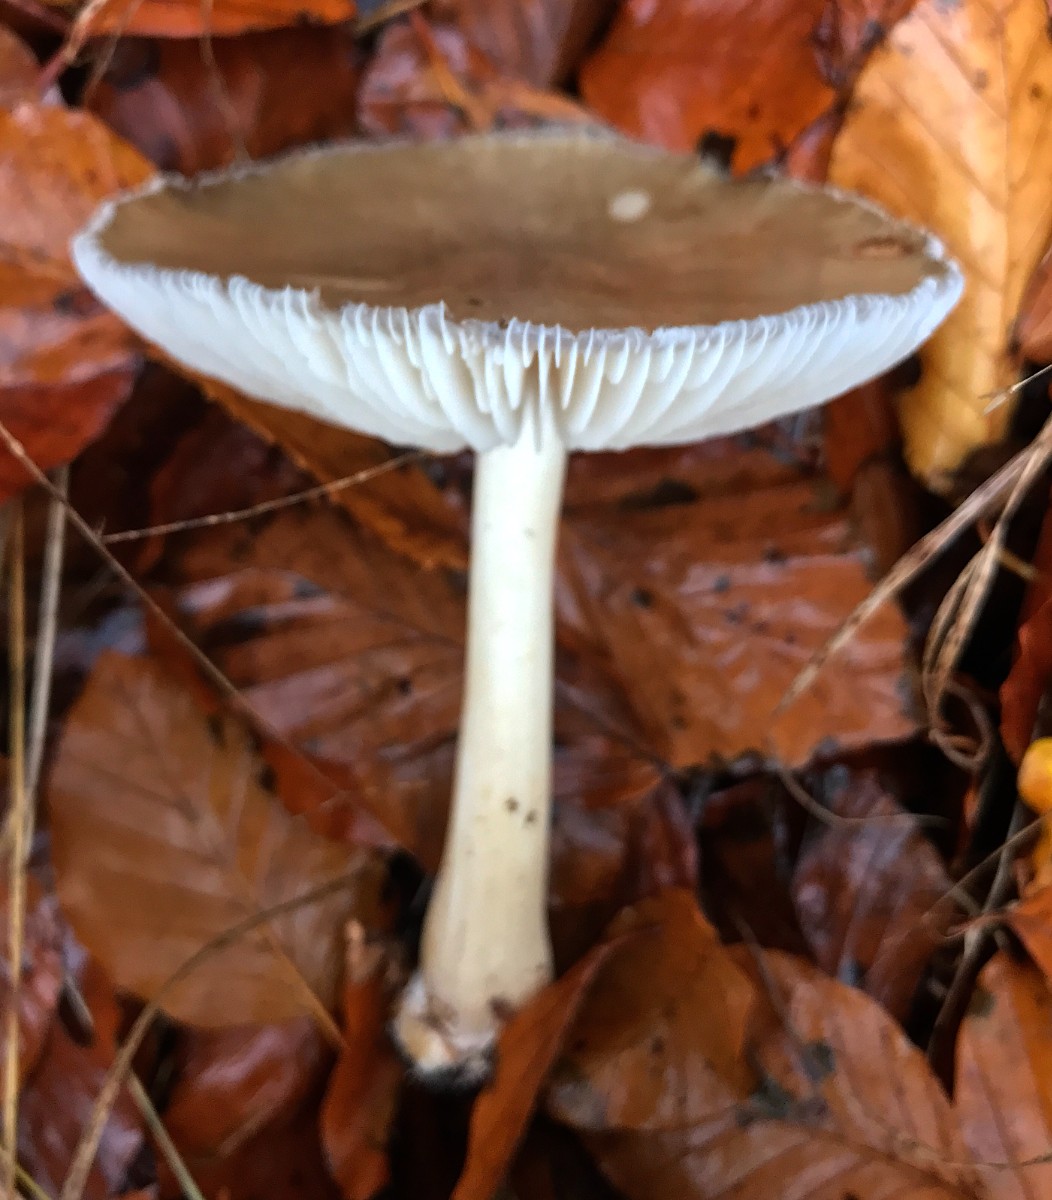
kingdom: Fungi
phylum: Basidiomycota
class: Agaricomycetes
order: Agaricales
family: Tricholomataceae
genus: Megacollybia
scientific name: Megacollybia platyphylla
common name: bredbladet væbnerhat
